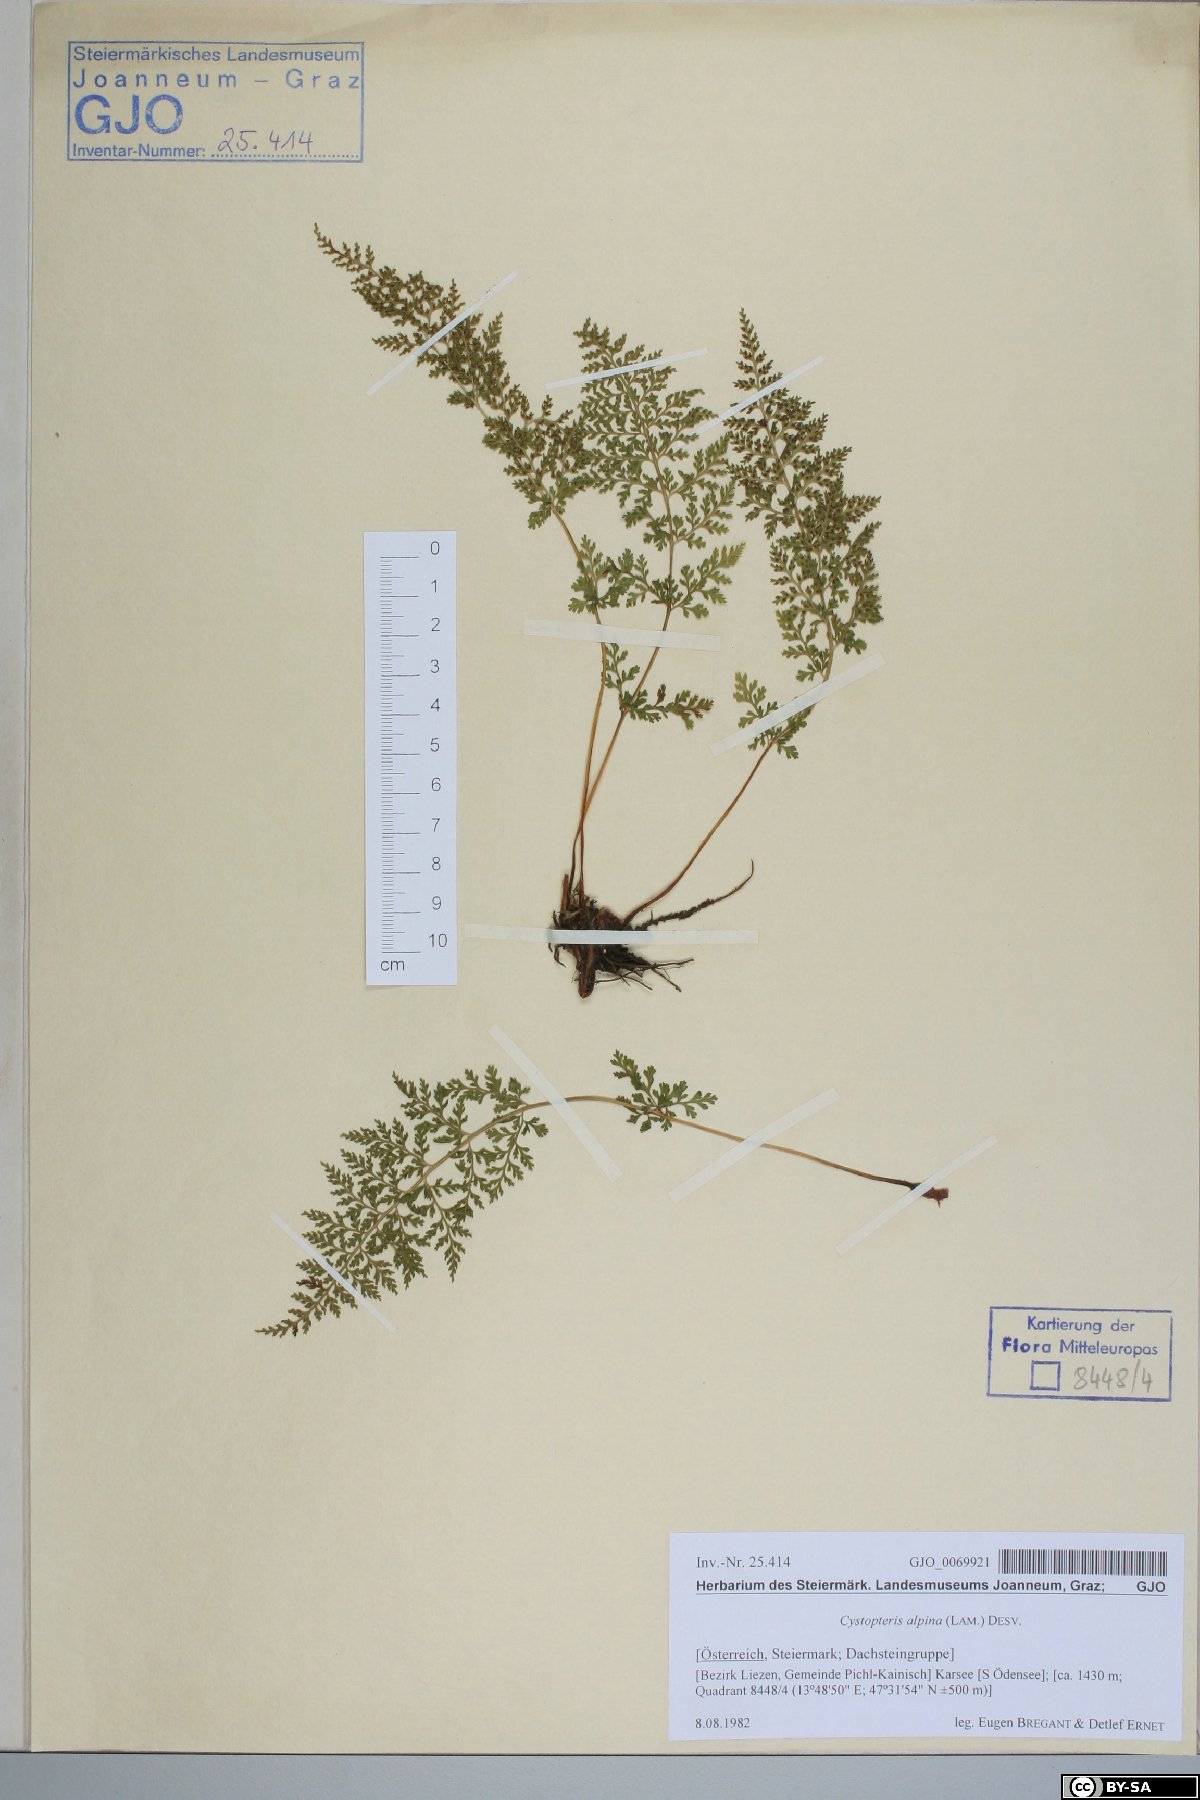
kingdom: Plantae
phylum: Tracheophyta
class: Polypodiopsida
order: Polypodiales
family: Cystopteridaceae
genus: Cystopteris
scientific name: Cystopteris alpina
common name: Alpine bladder-fern
